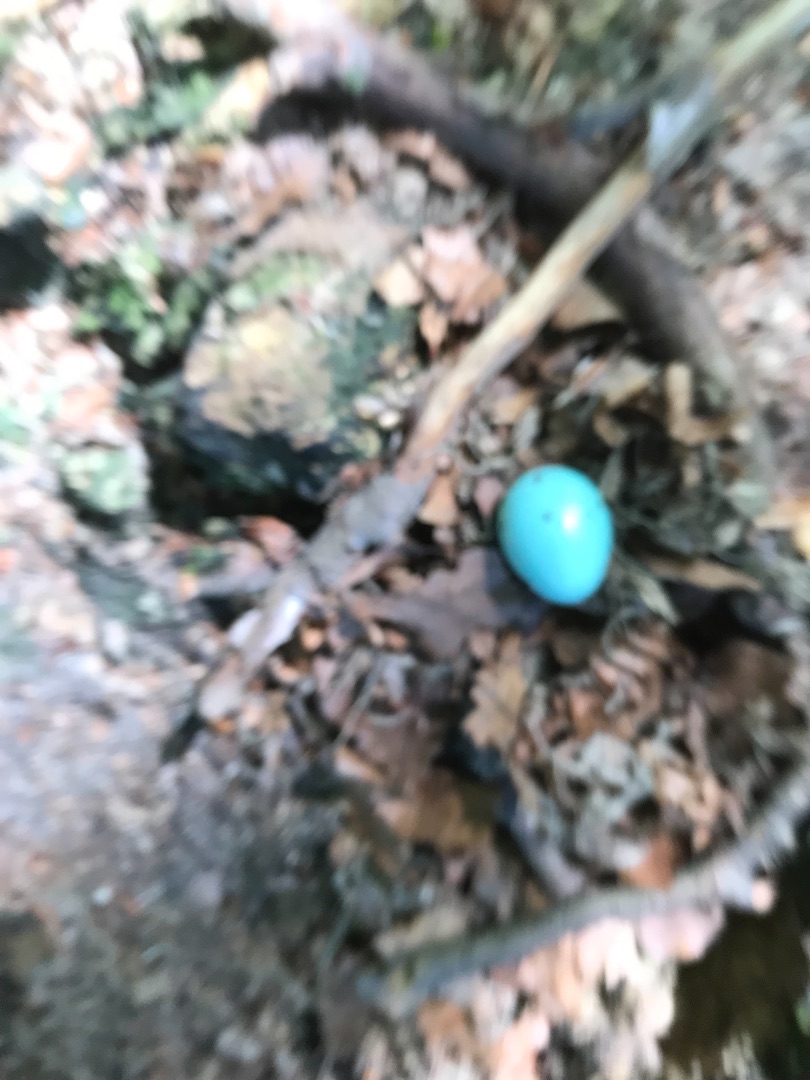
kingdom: Animalia
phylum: Chordata
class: Aves
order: Passeriformes
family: Turdidae
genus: Turdus
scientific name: Turdus merula
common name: Solsort
